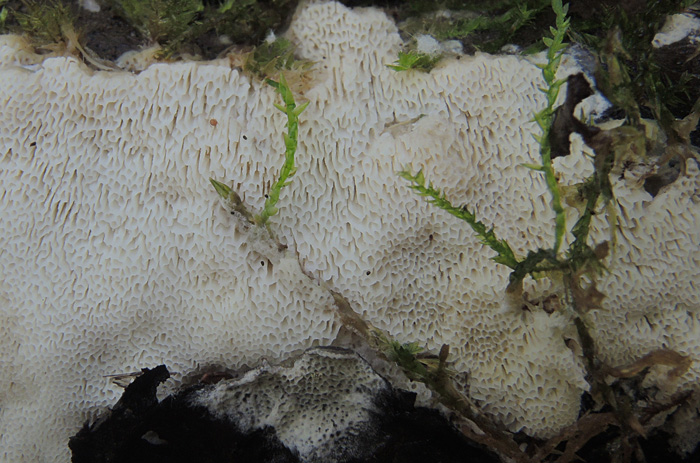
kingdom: Fungi
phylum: Basidiomycota
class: Agaricomycetes
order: Polyporales
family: Steccherinaceae
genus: Antella
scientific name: Antella niemelaei
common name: grovporet elastikporesvamp
